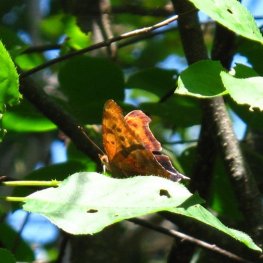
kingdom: Animalia
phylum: Arthropoda
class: Insecta
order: Lepidoptera
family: Nymphalidae
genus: Polygonia
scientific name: Polygonia interrogationis
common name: Question Mark
